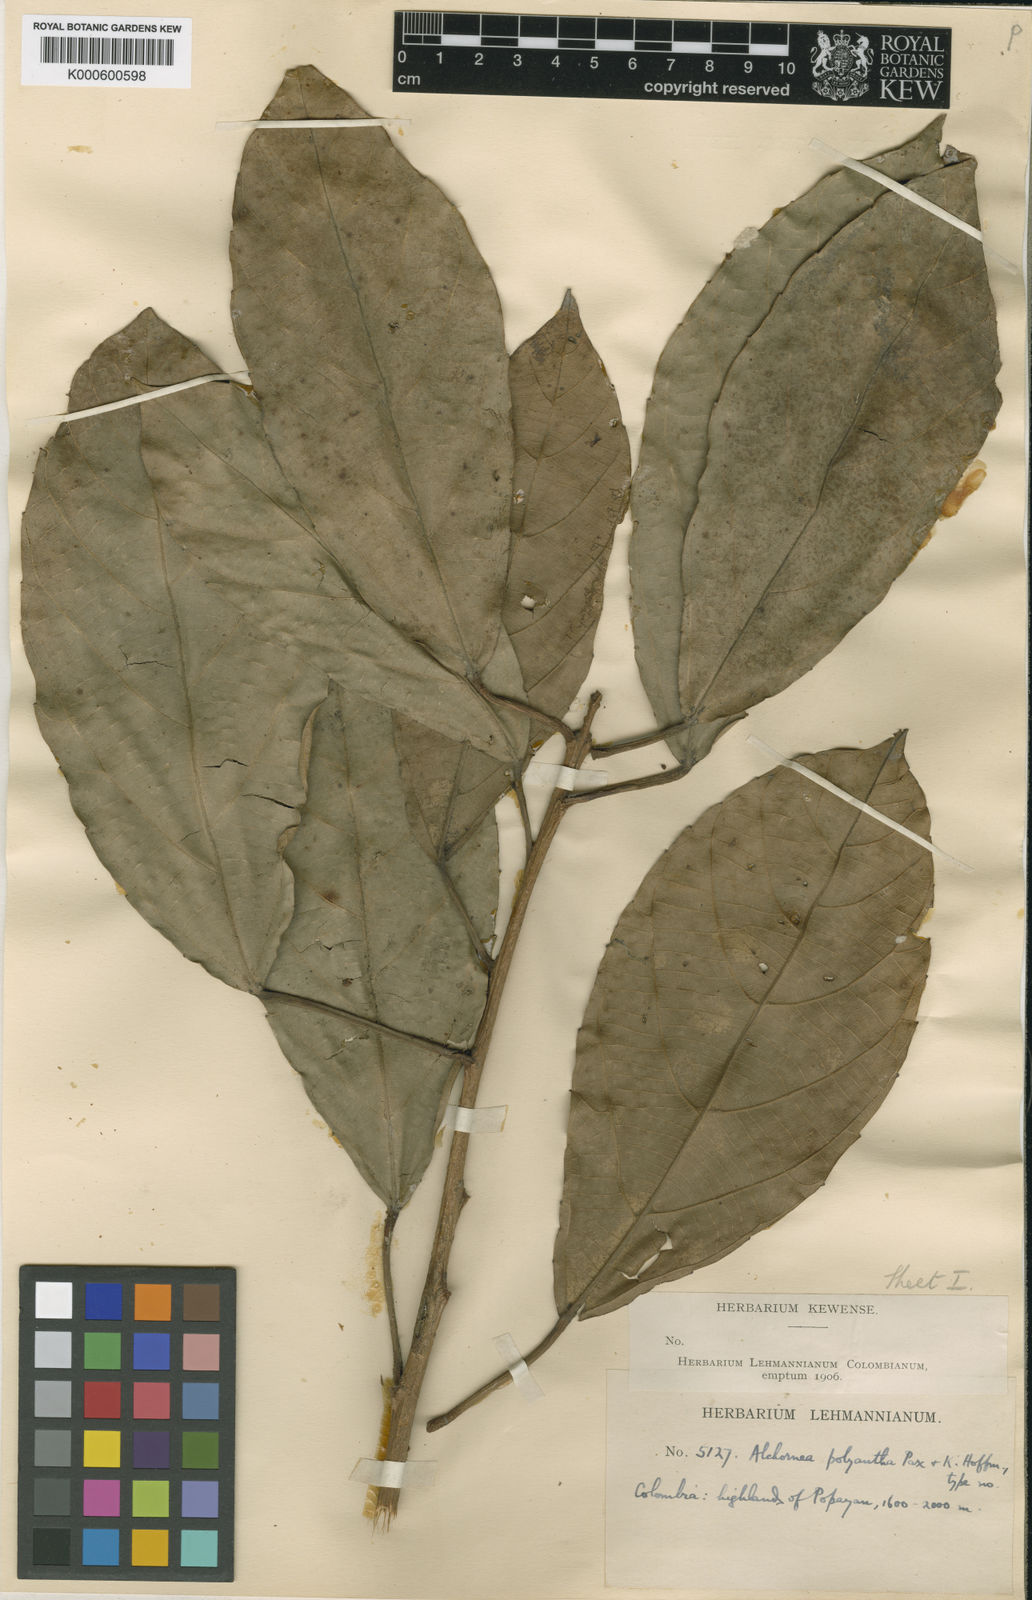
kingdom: Plantae
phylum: Tracheophyta
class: Magnoliopsida
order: Malpighiales
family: Euphorbiaceae
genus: Alchornea
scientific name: Alchornea latifolia
